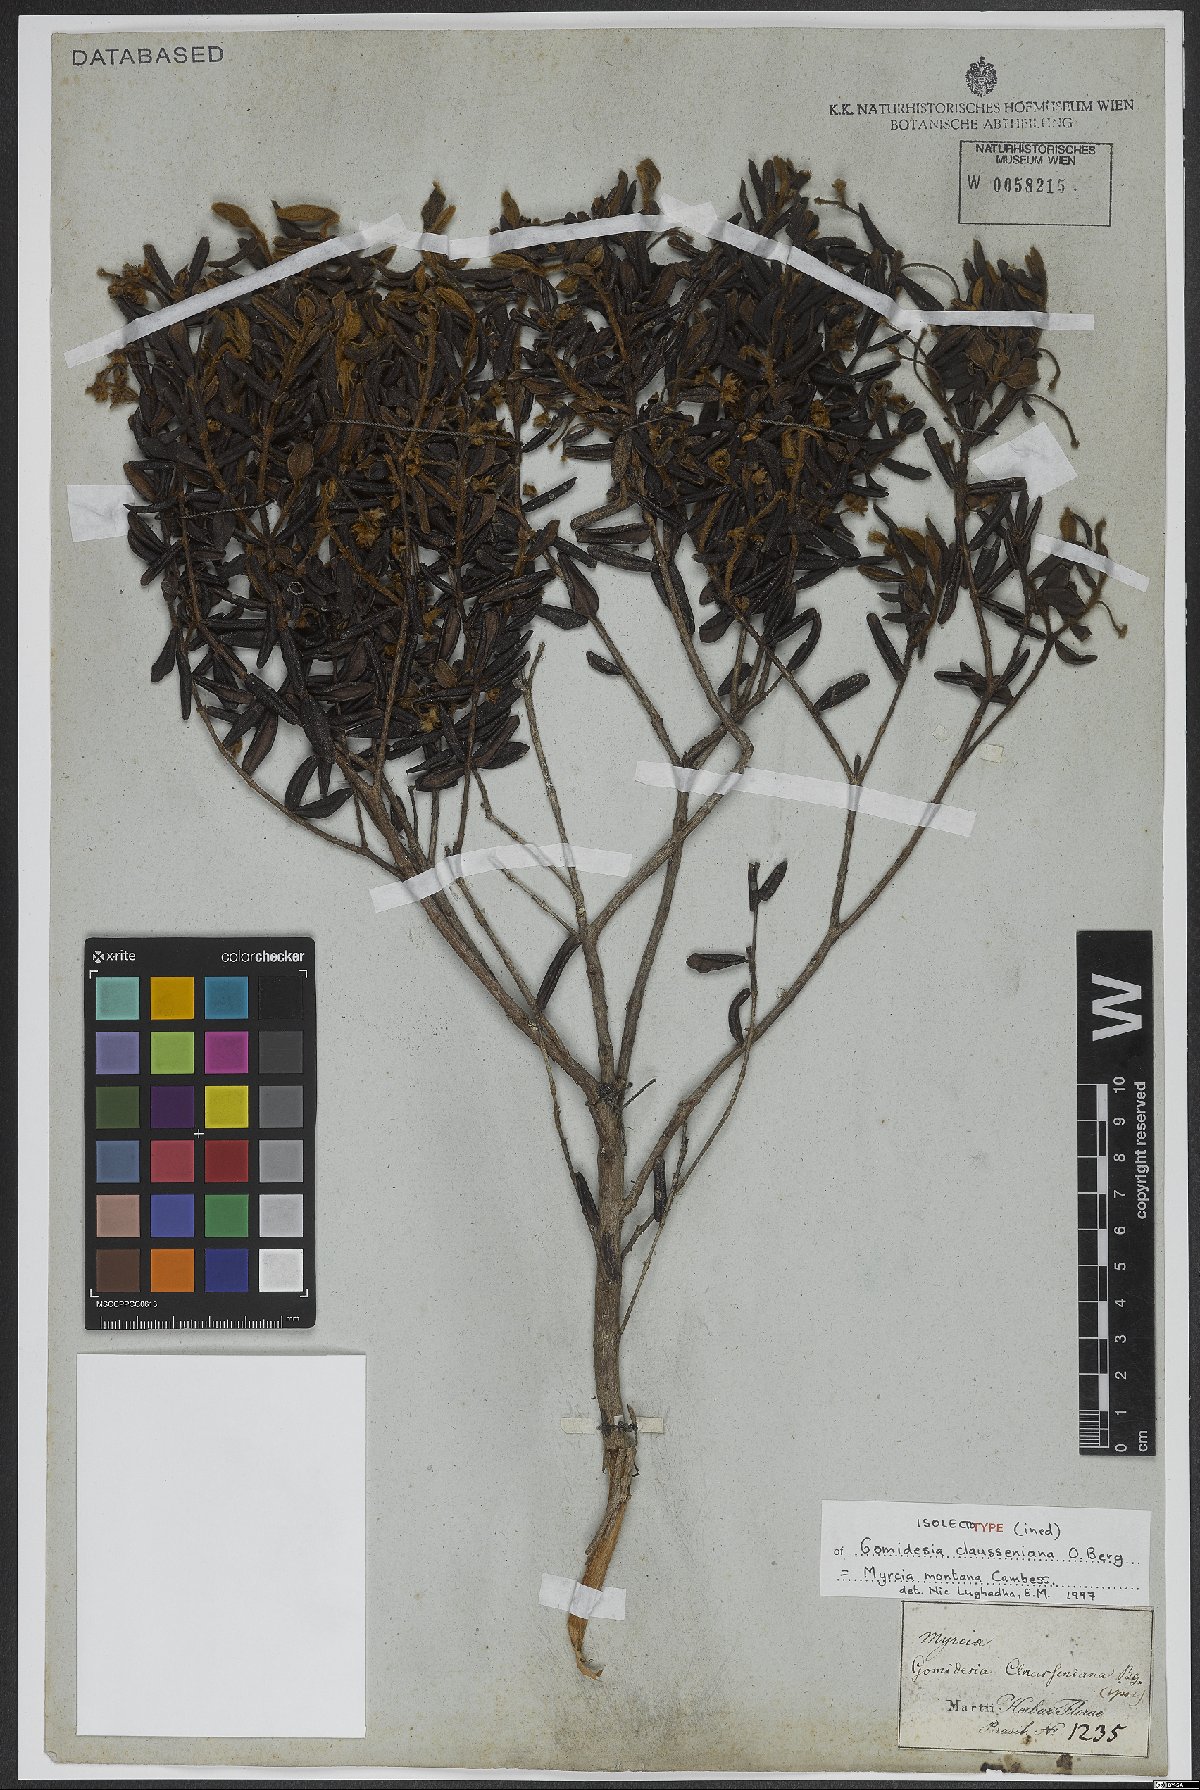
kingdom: Plantae
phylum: Tracheophyta
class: Magnoliopsida
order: Myrtales
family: Myrtaceae
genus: Myrcia
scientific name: Myrcia montana
